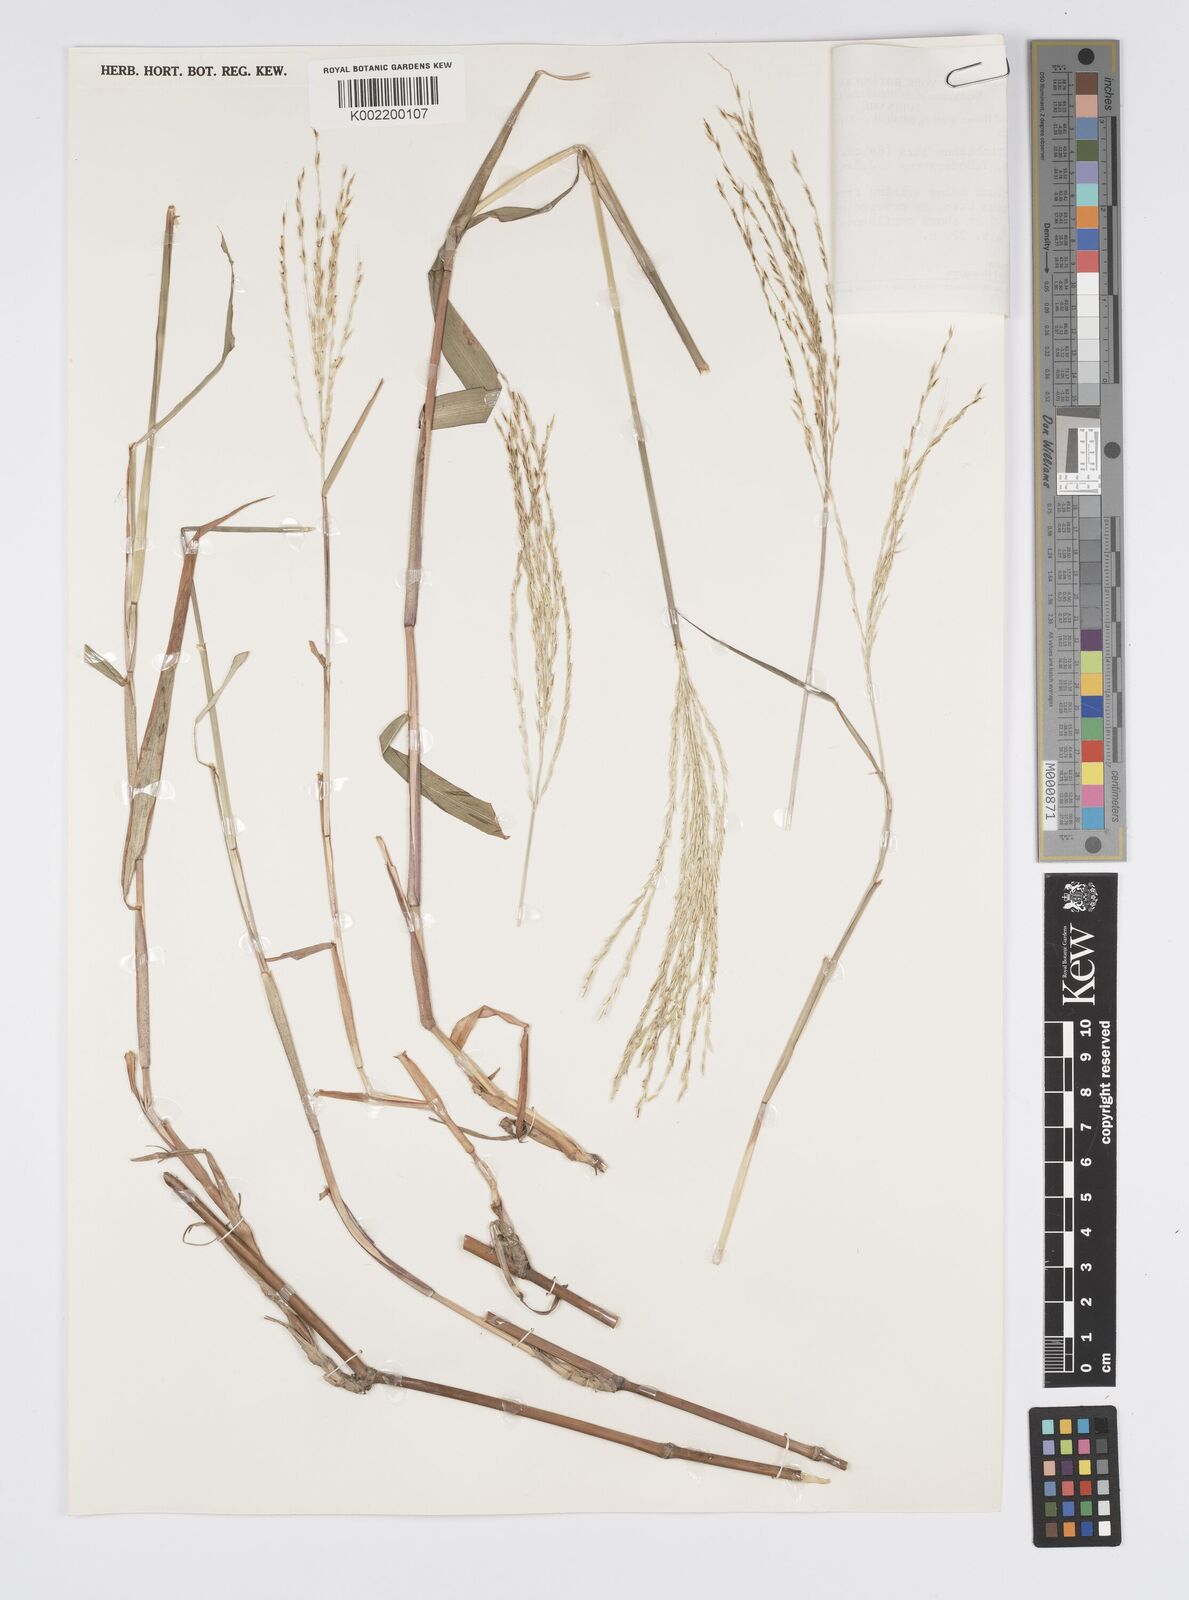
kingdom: Plantae
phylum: Tracheophyta
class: Liliopsida
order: Poales
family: Poaceae
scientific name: Poaceae
